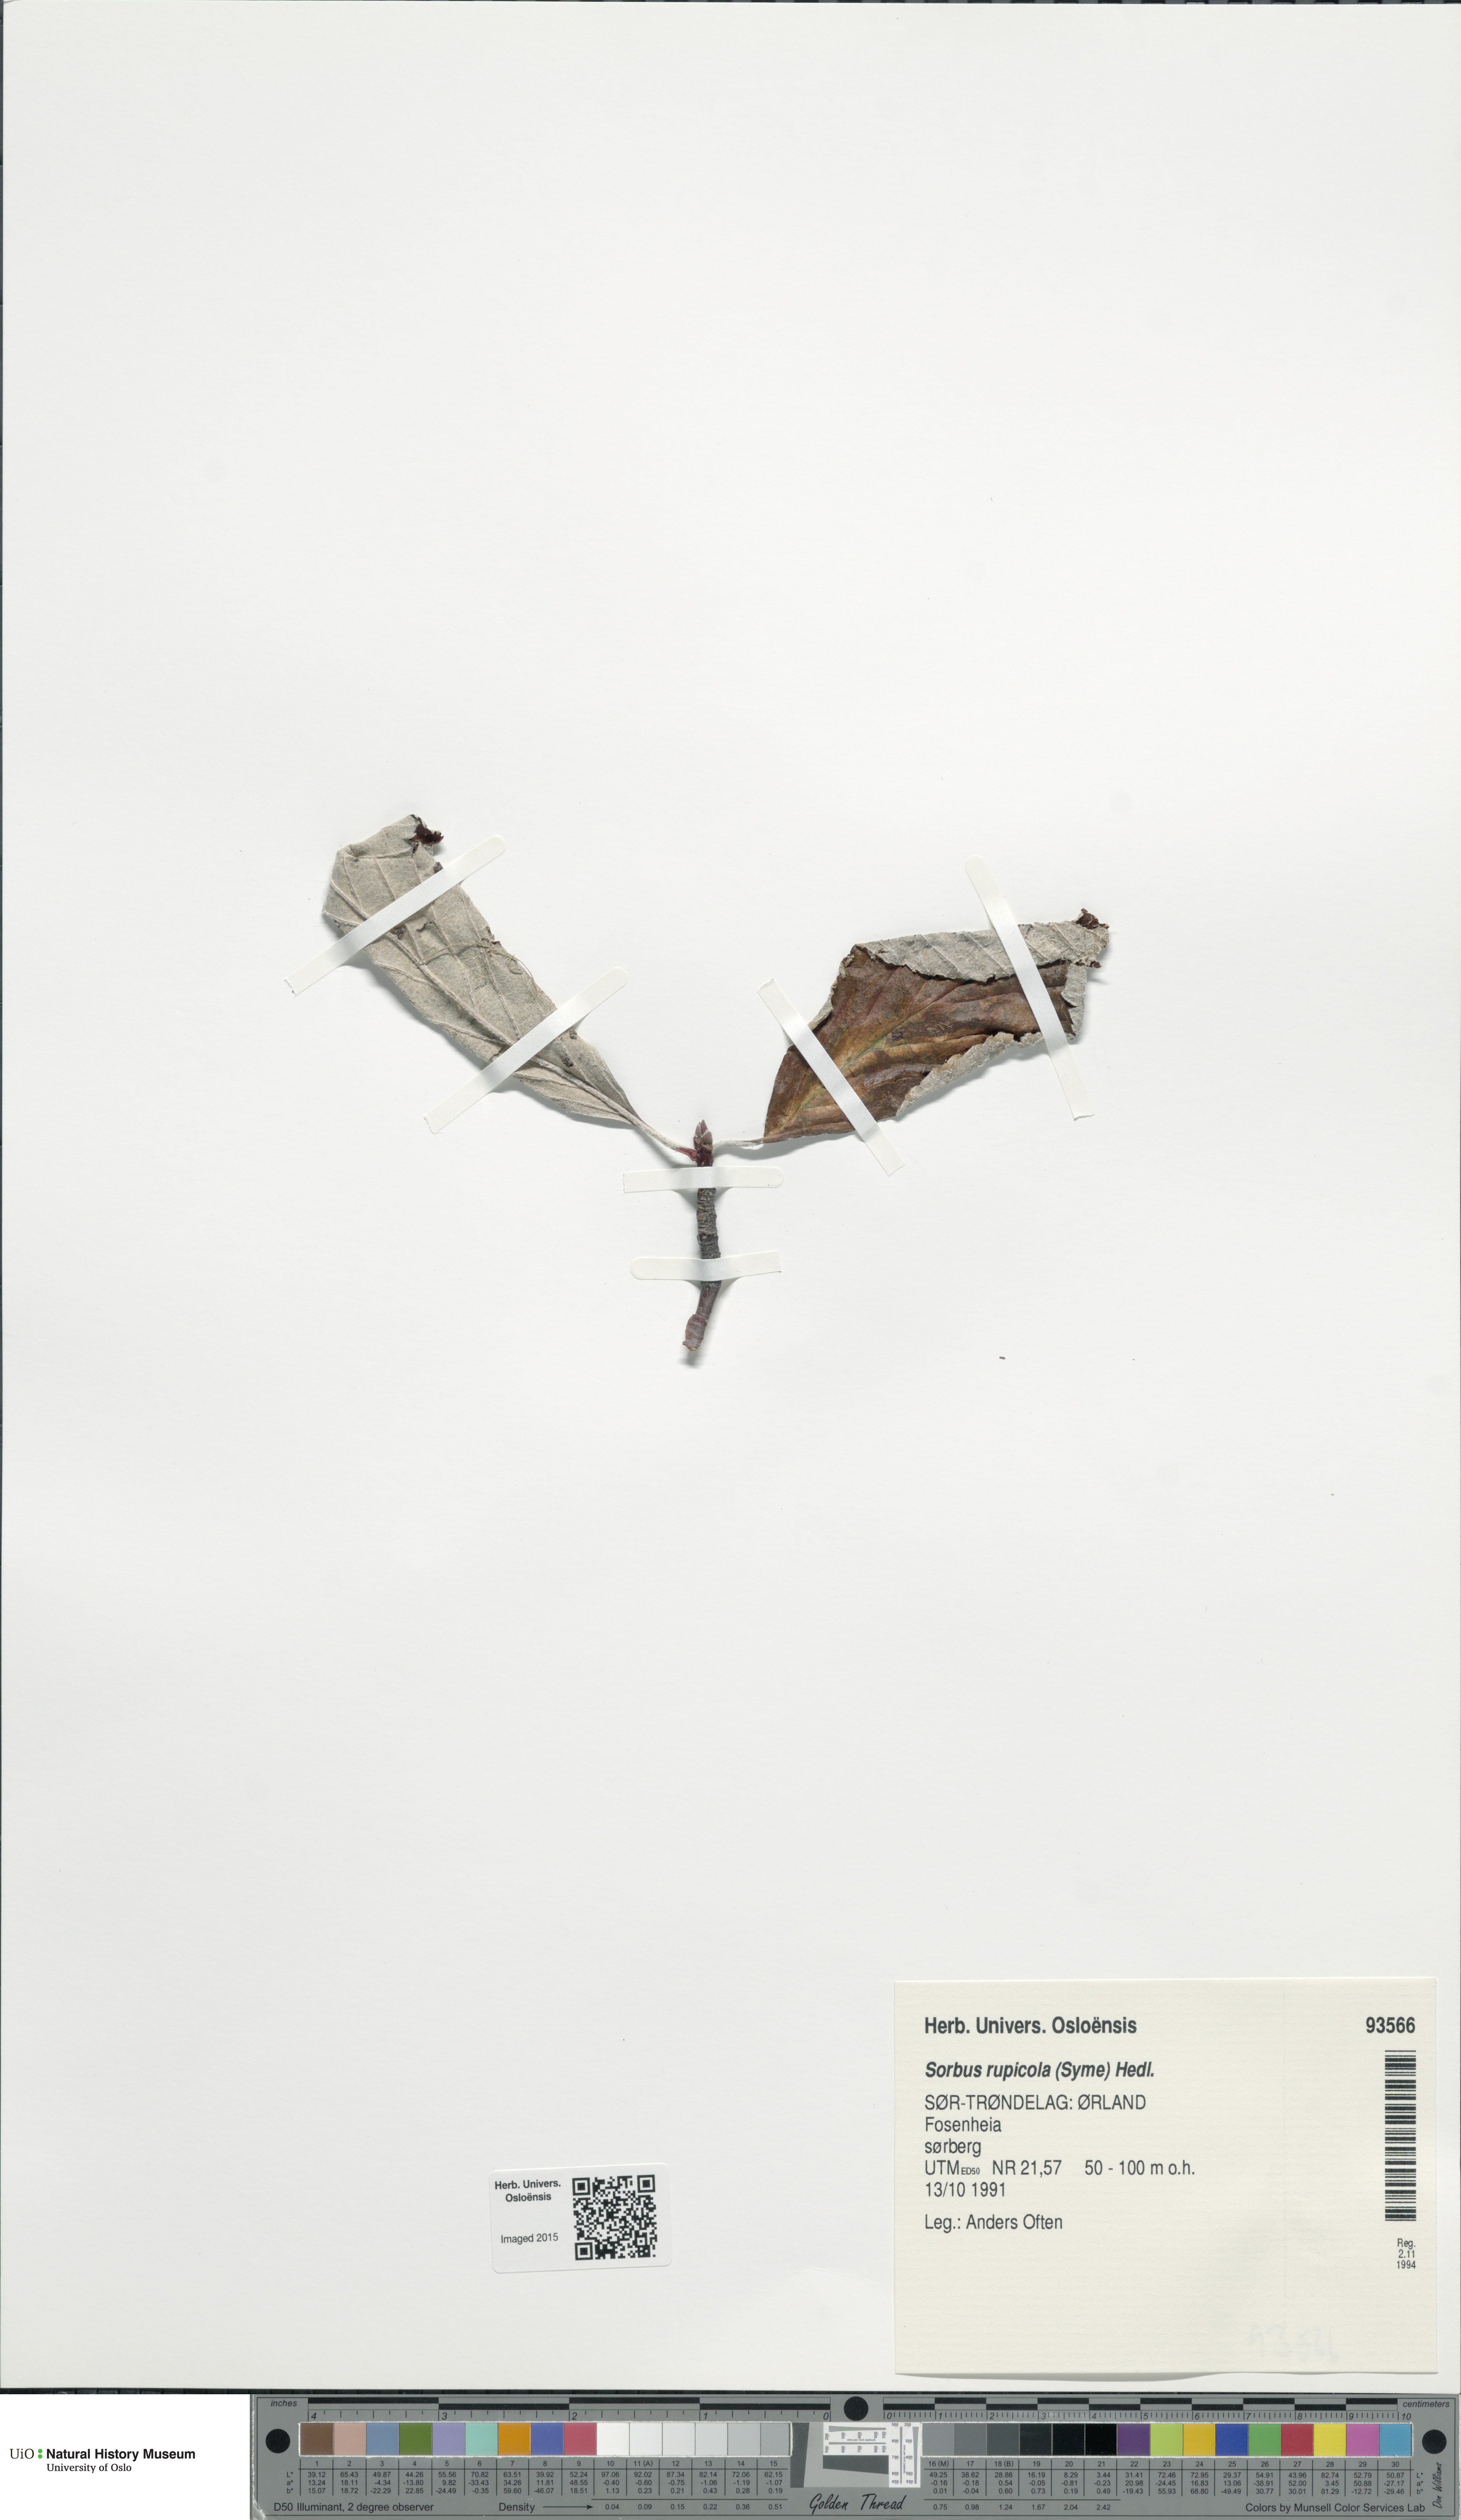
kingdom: Plantae
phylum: Tracheophyta
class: Magnoliopsida
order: Rosales
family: Rosaceae
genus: Aria
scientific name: Aria rupicola
